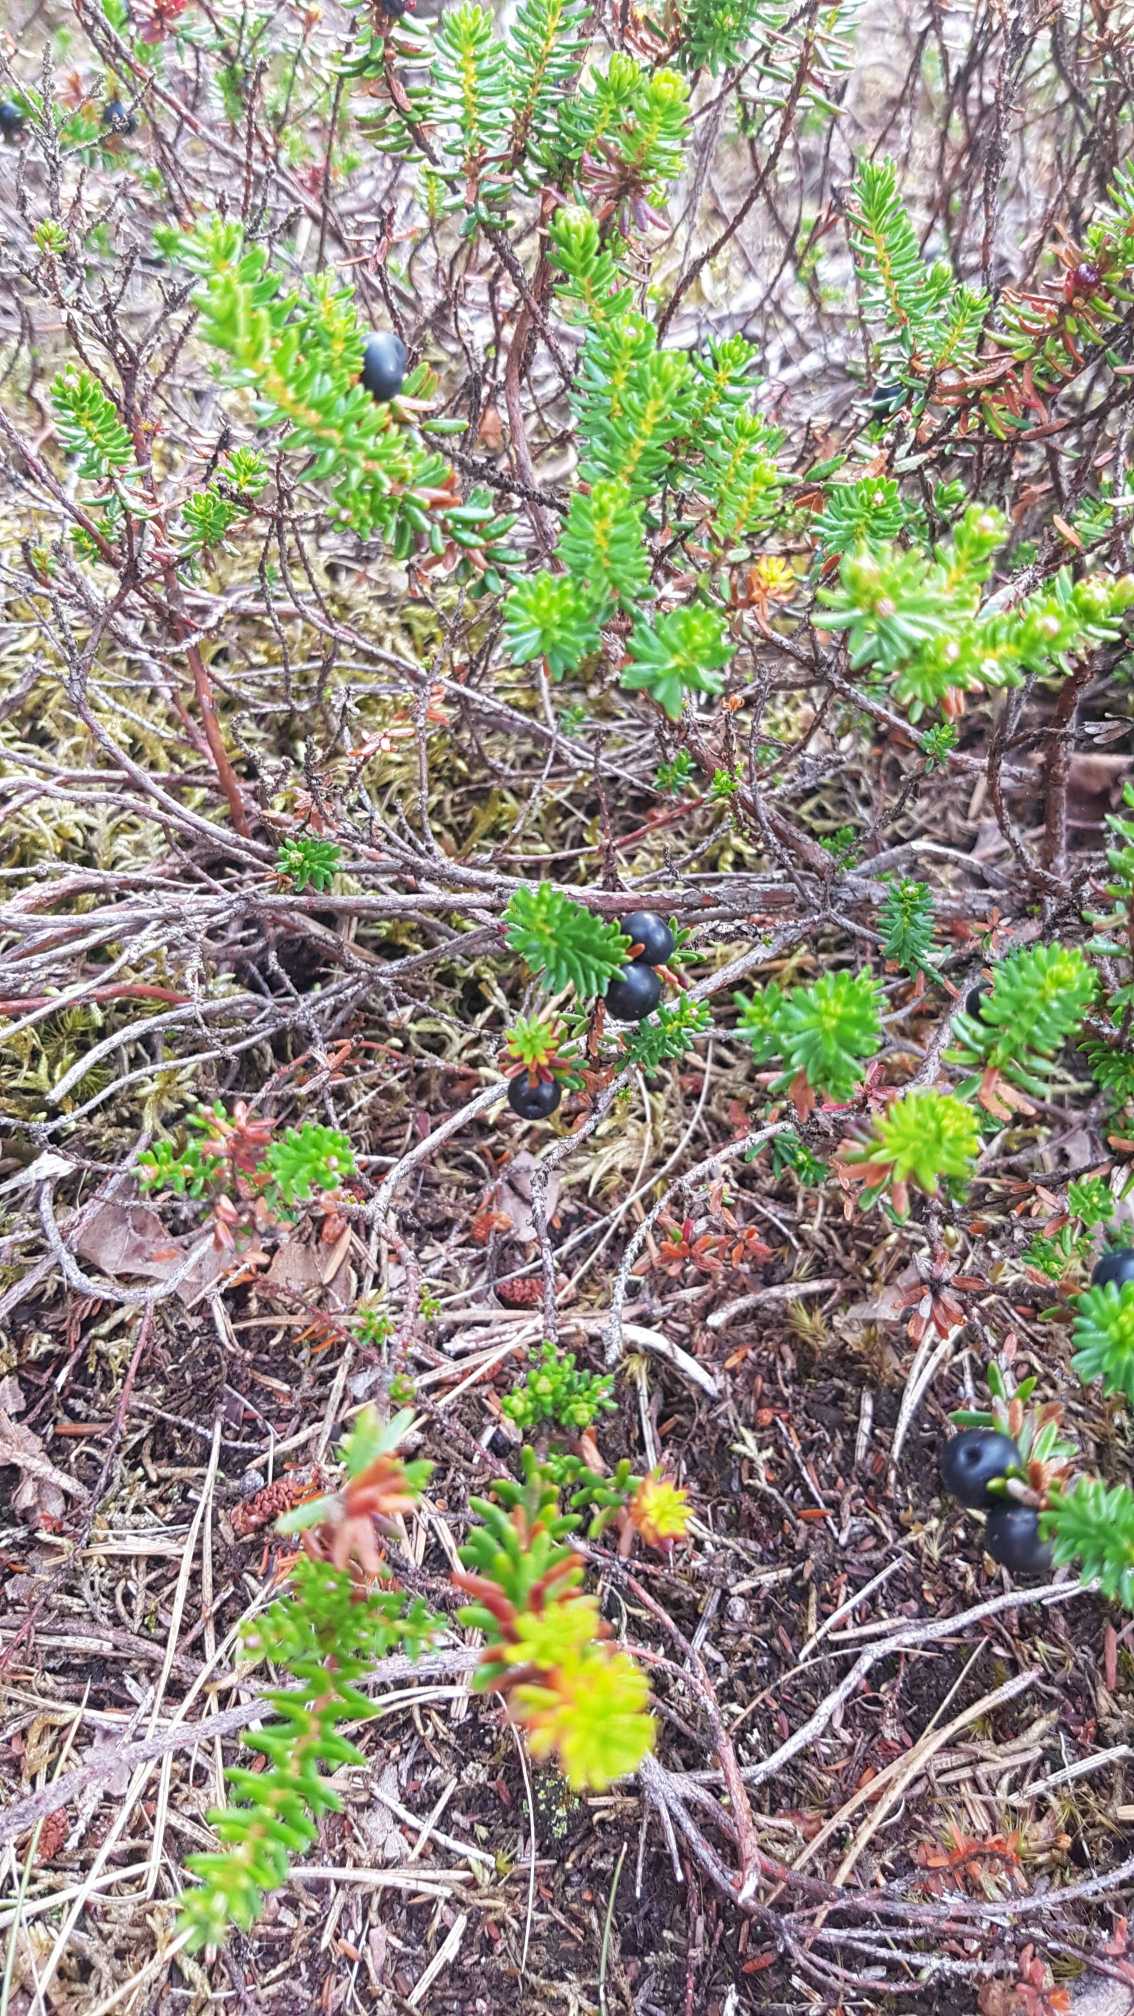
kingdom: Plantae
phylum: Tracheophyta
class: Magnoliopsida
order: Ericales
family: Ericaceae
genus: Empetrum
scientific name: Empetrum nigrum
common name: Revling
